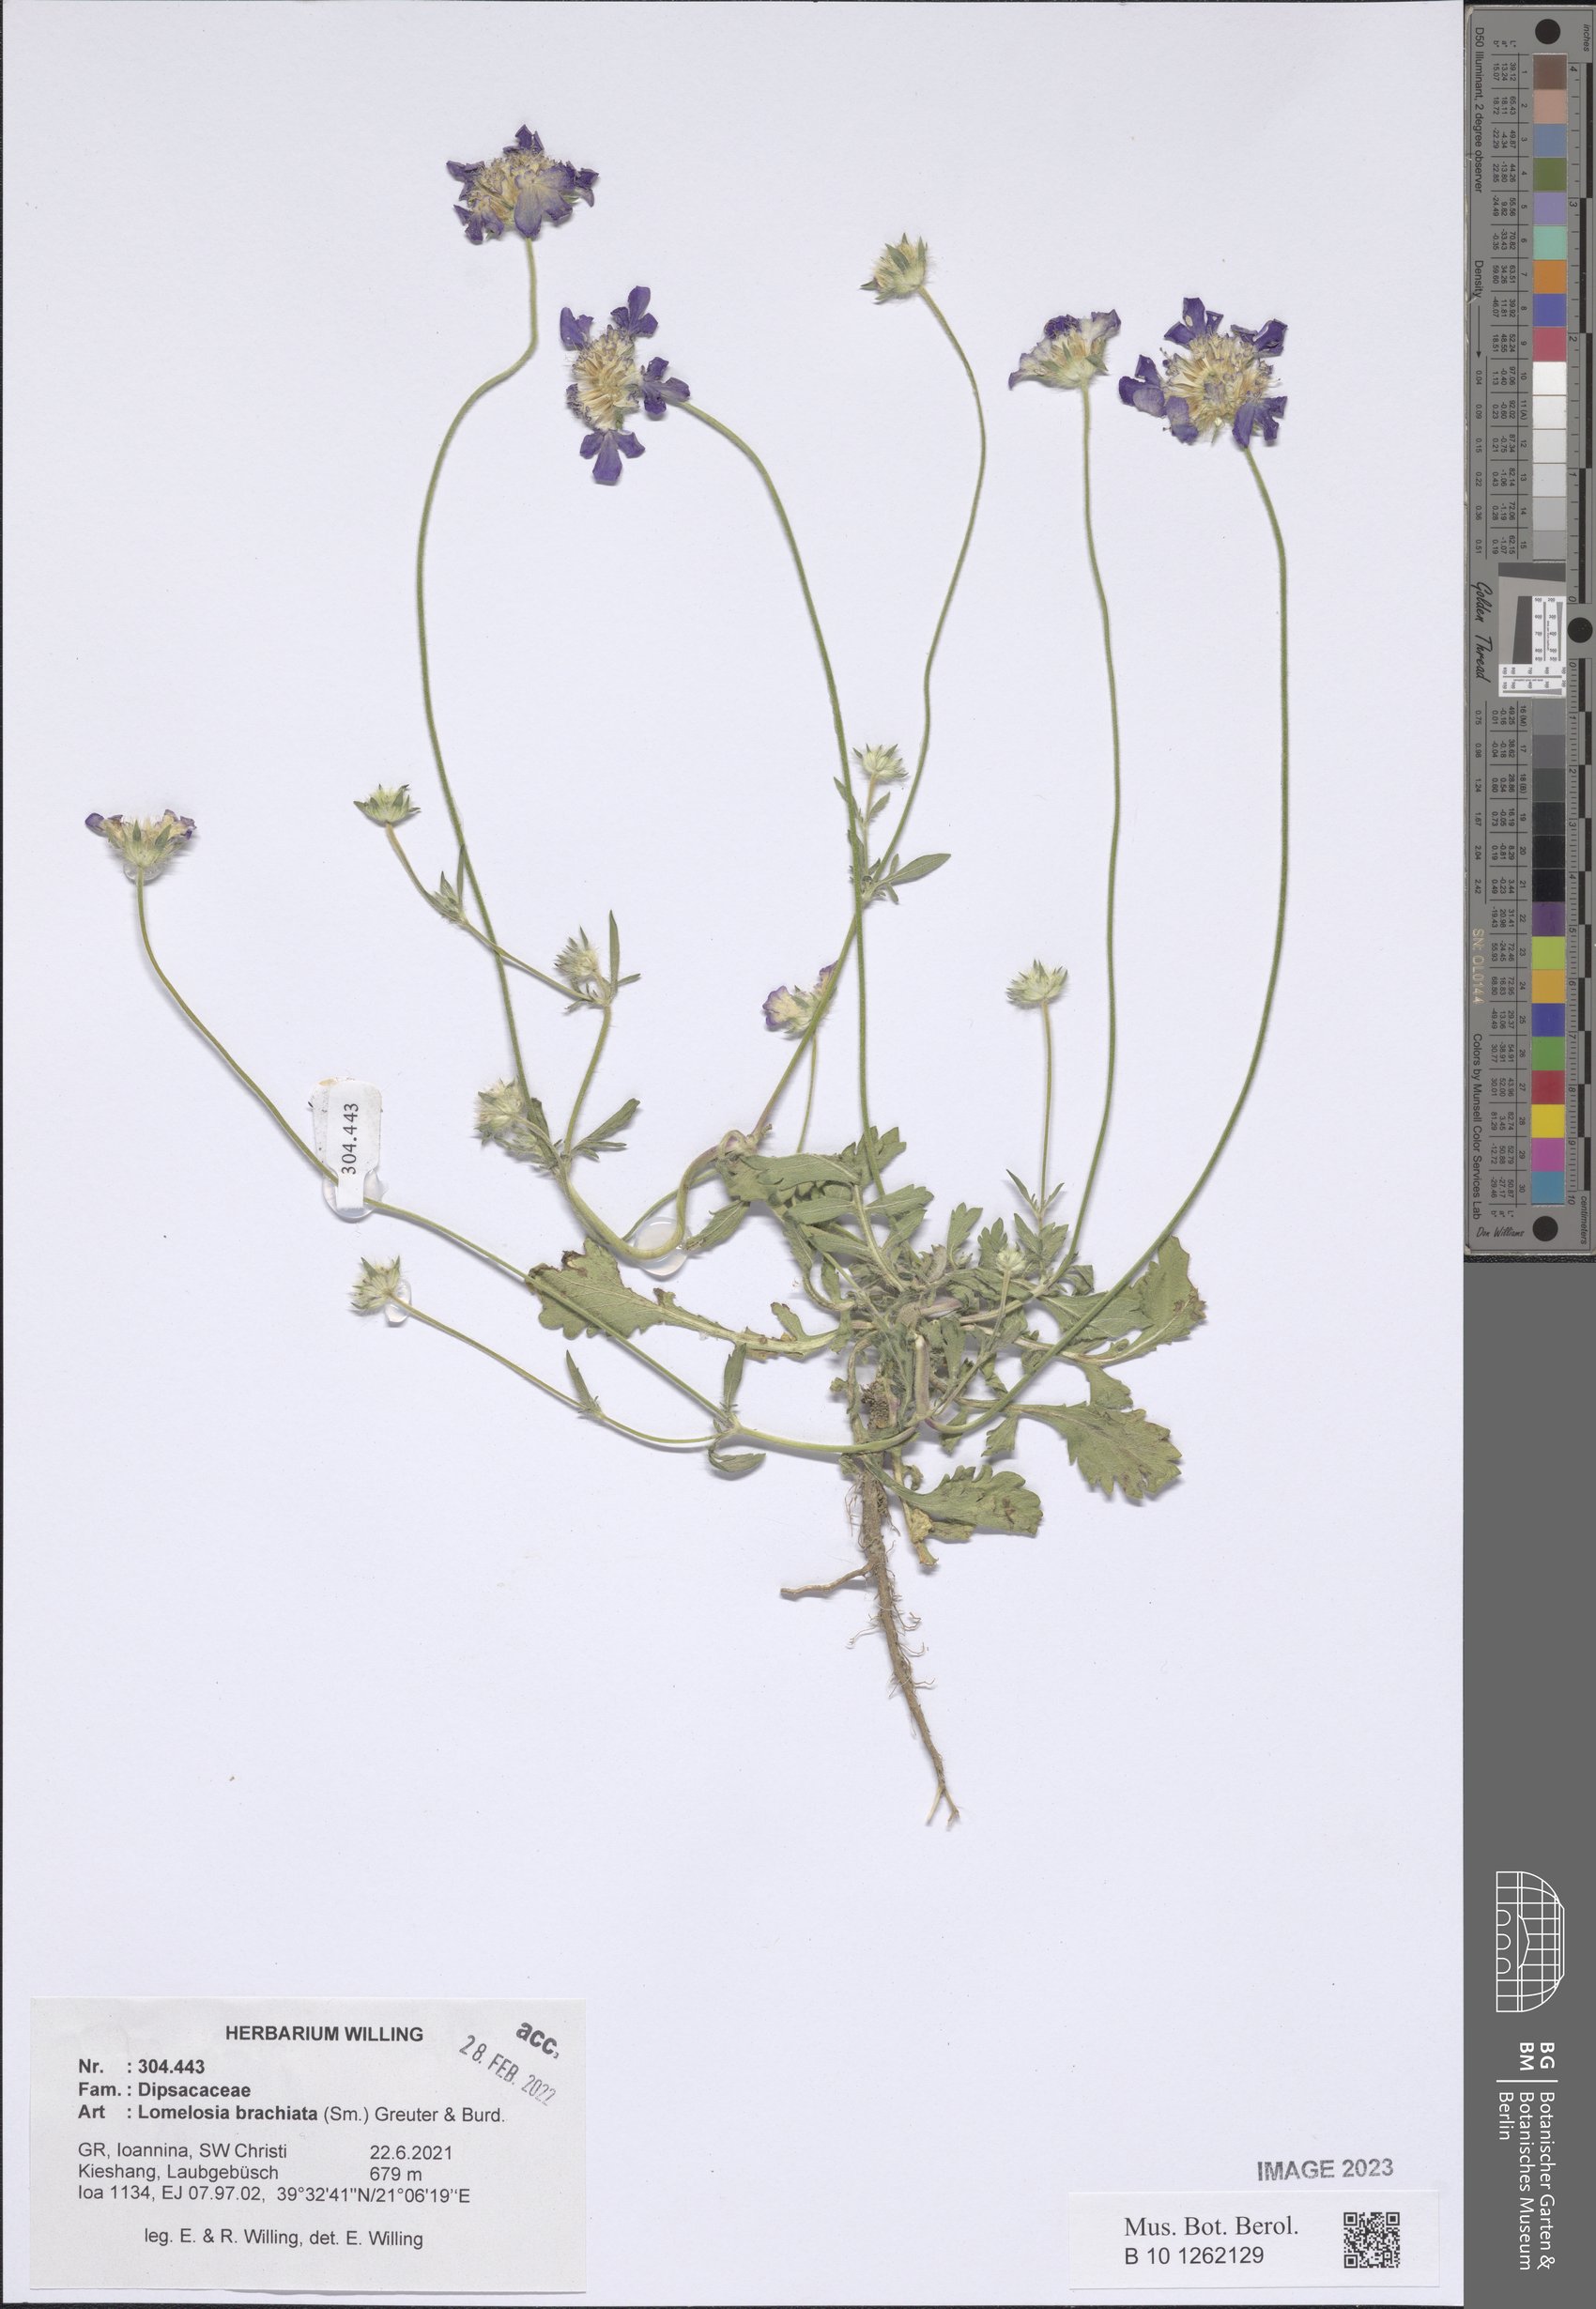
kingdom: Plantae
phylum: Tracheophyta
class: Magnoliopsida
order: Dipsacales
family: Caprifoliaceae
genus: Lomelosia
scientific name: Lomelosia brachiata
